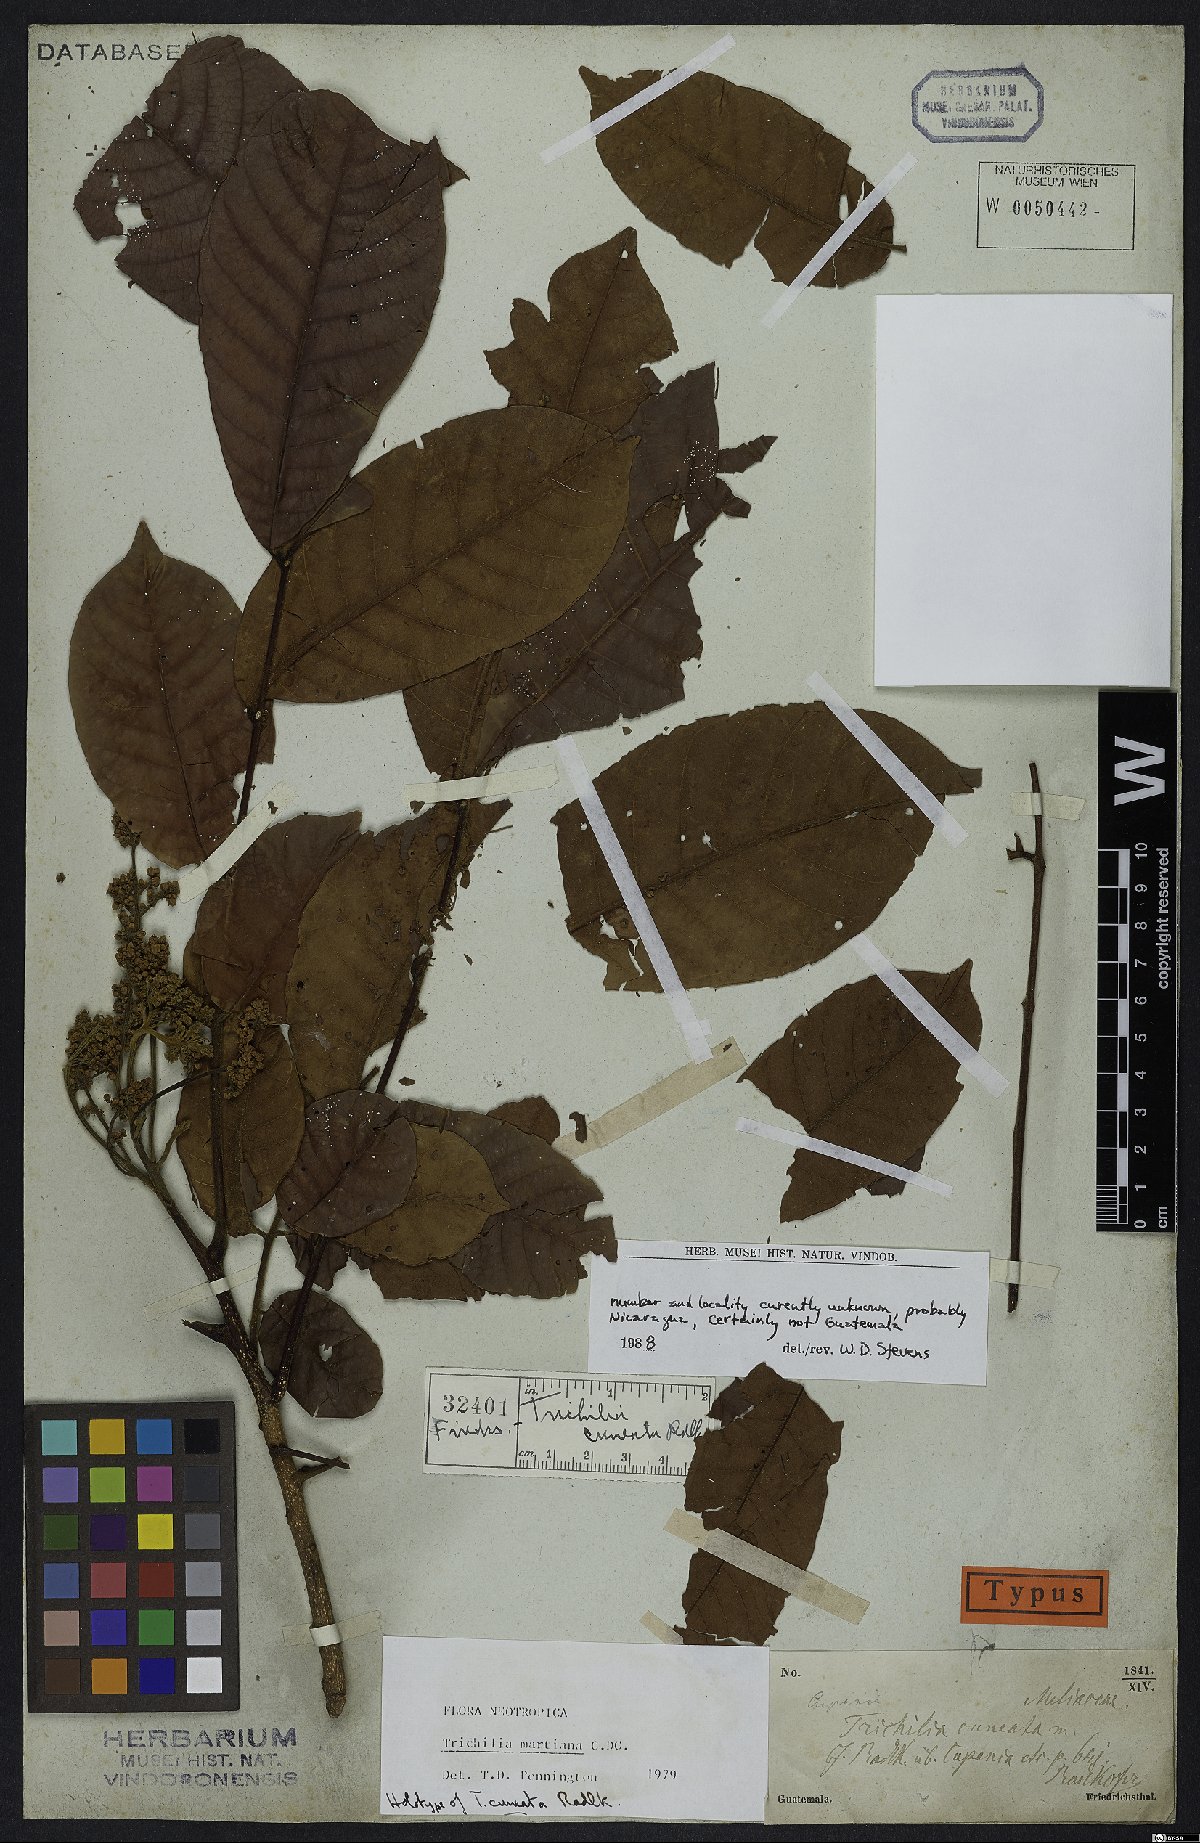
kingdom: Plantae
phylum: Tracheophyta
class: Magnoliopsida
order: Sapindales
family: Meliaceae
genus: Trichilia
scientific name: Trichilia martiana
